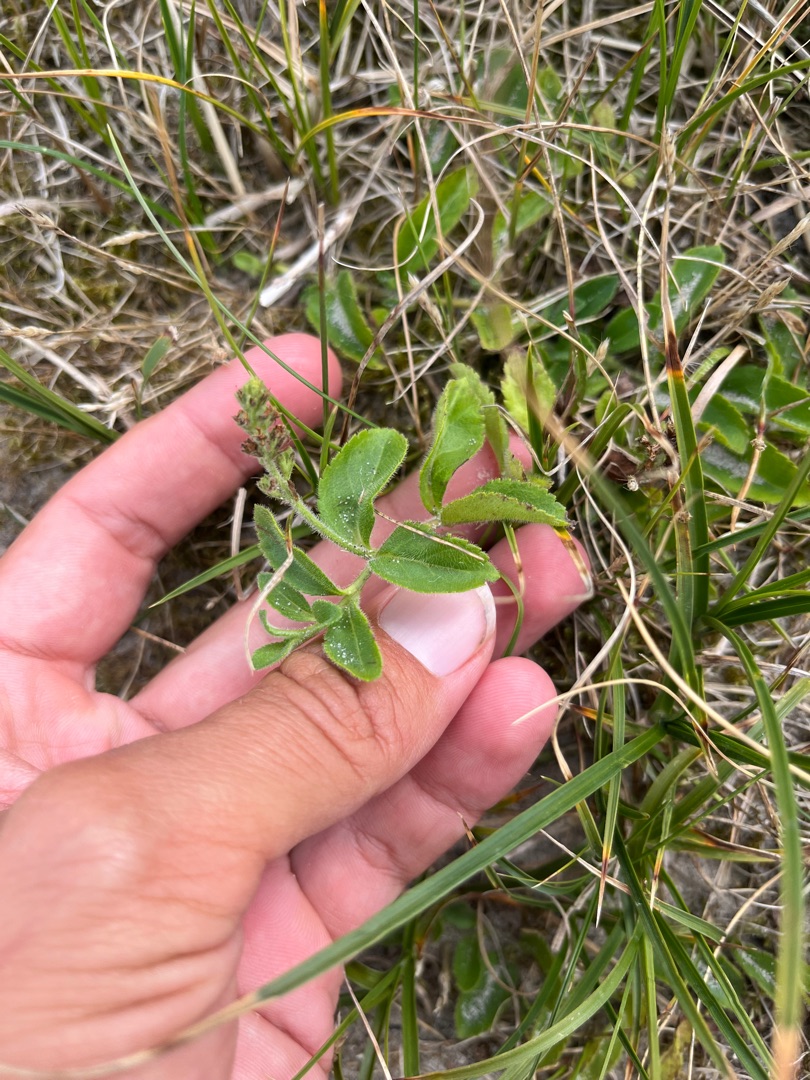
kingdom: Plantae
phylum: Tracheophyta
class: Magnoliopsida
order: Lamiales
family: Plantaginaceae
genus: Veronica
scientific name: Veronica officinalis
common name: Læge-ærenpris
